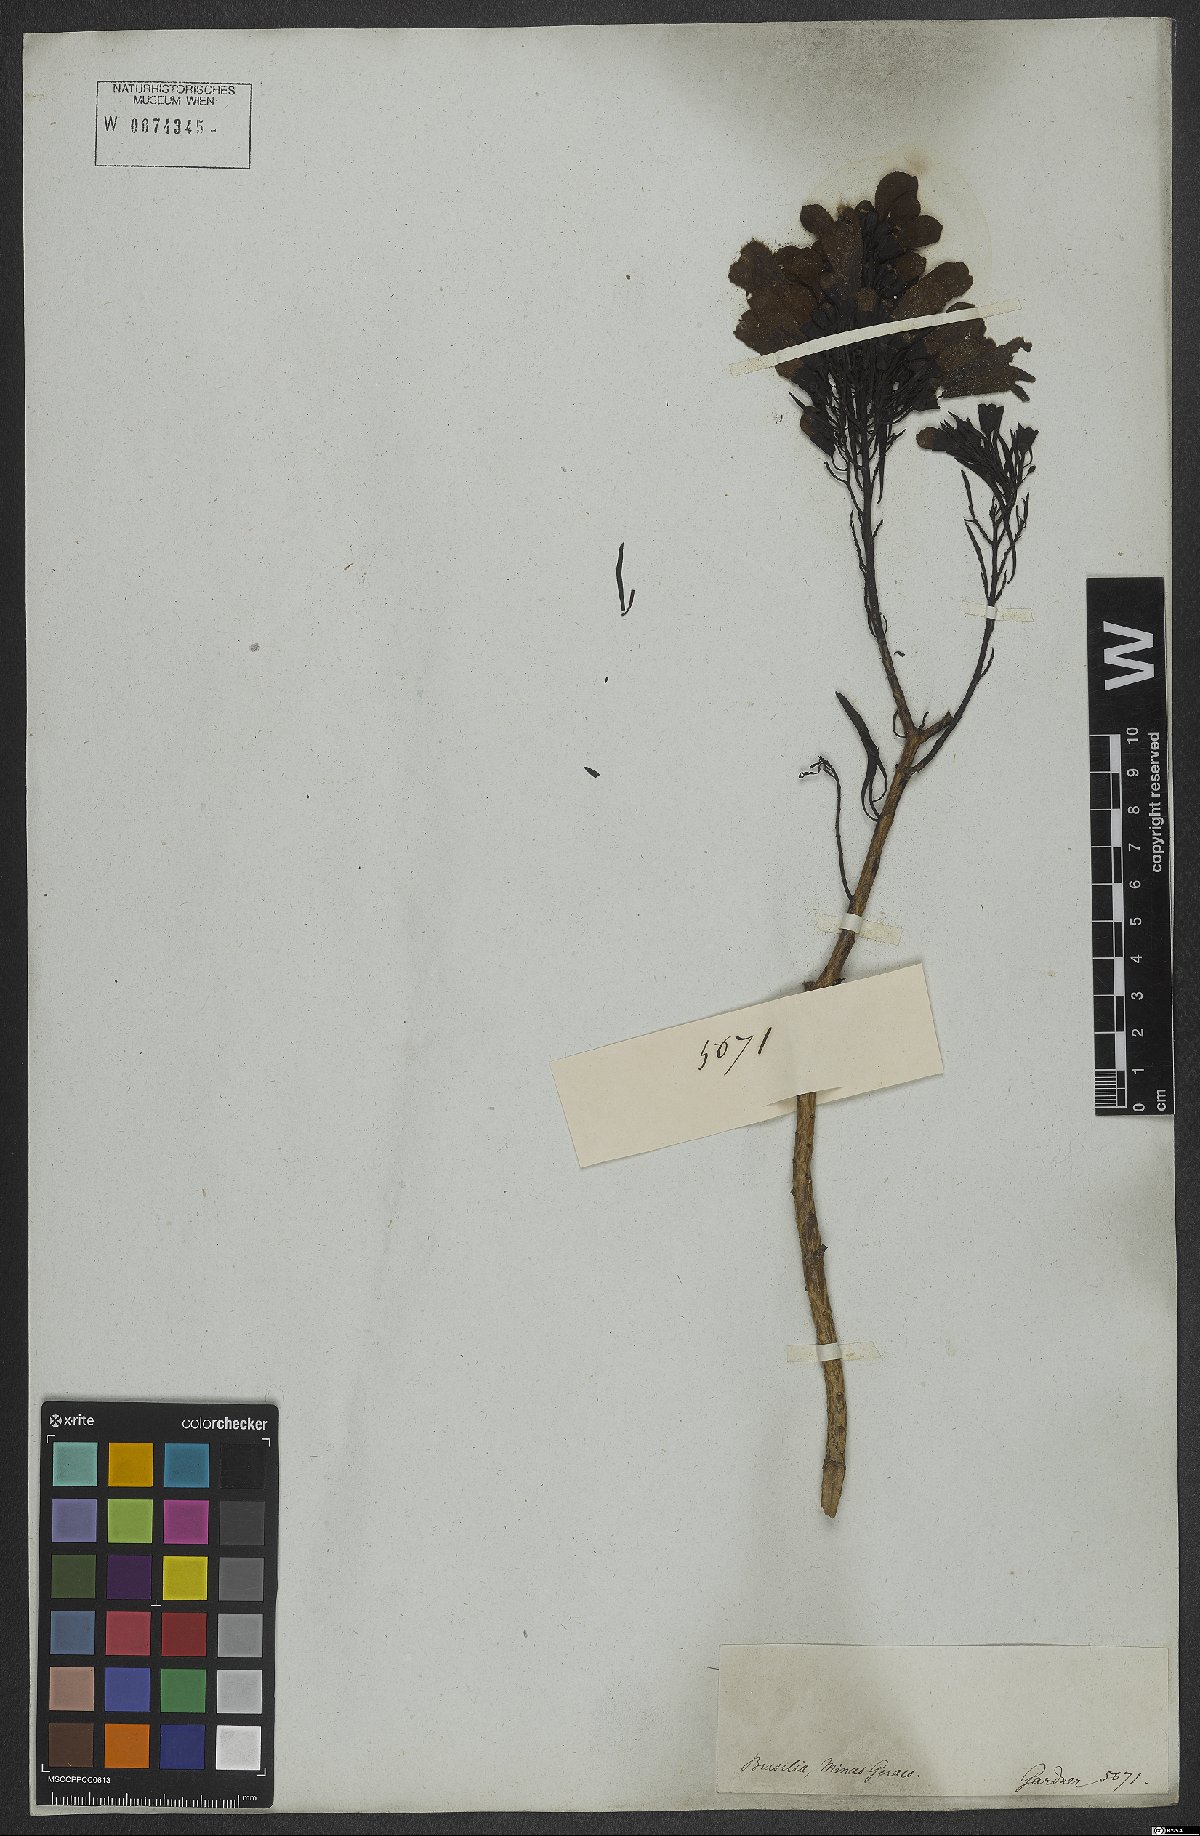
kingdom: Plantae
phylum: Tracheophyta
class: Magnoliopsida
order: Lamiales
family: Orobanchaceae
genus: Esterhazya
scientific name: Esterhazya splendida
